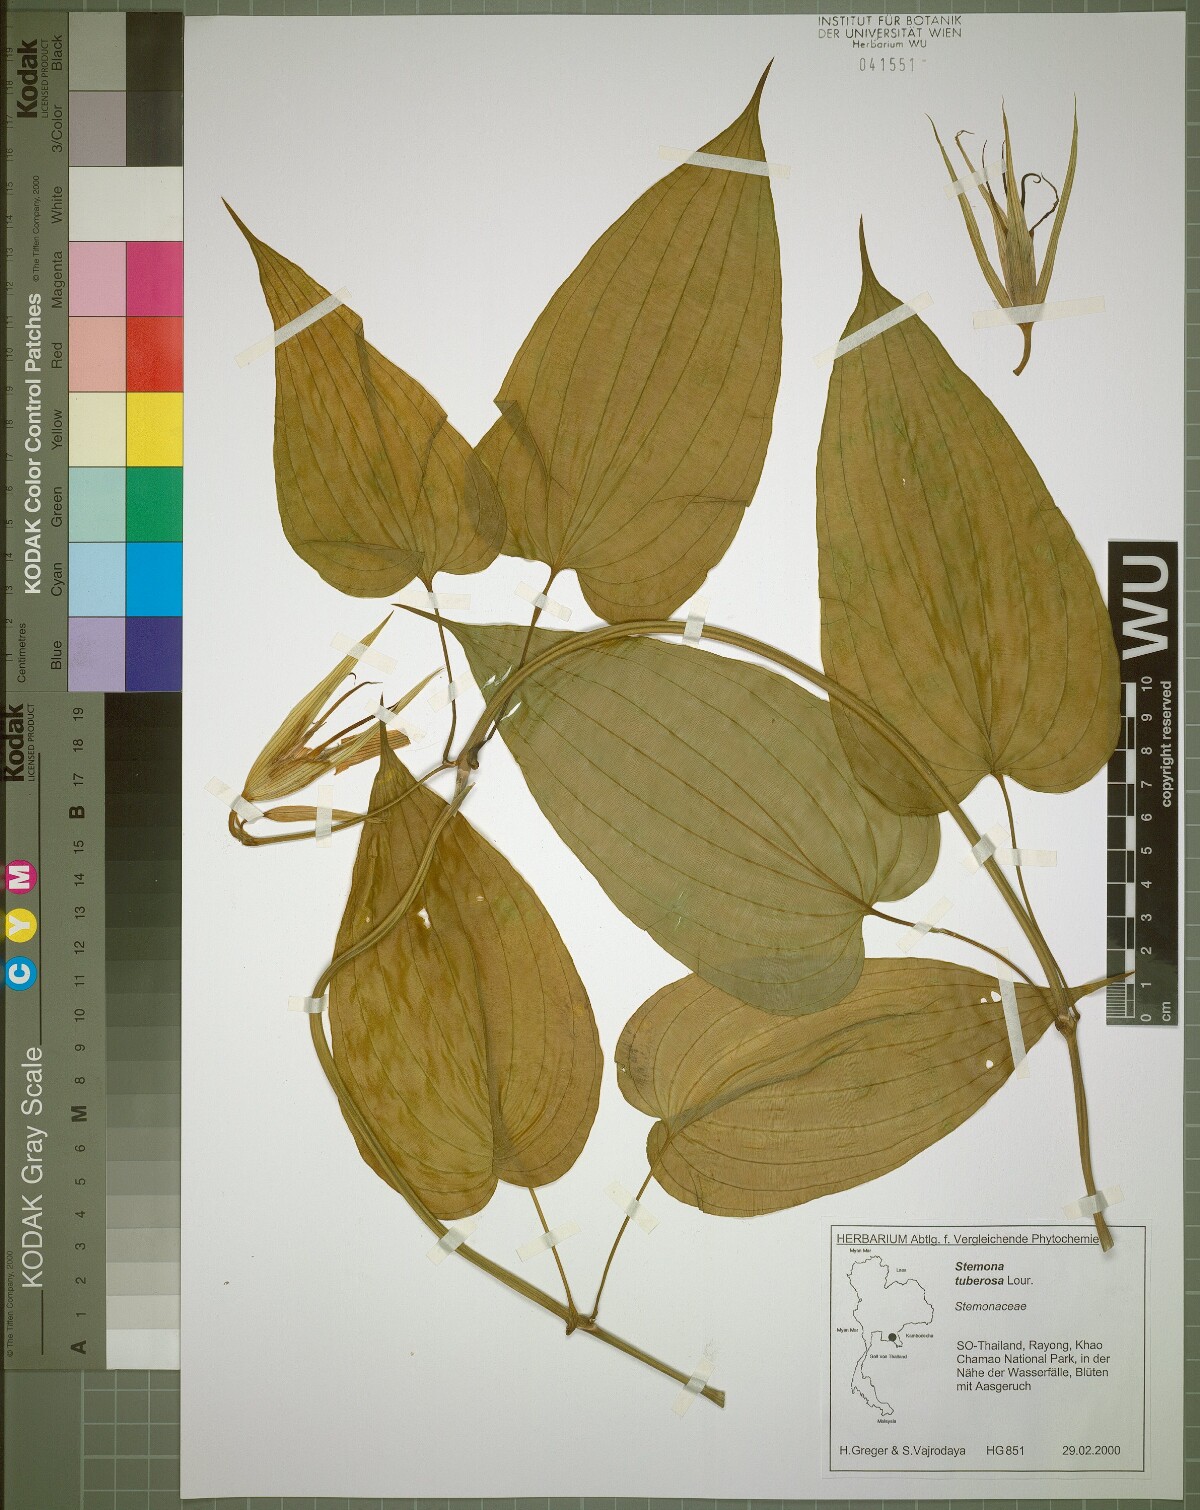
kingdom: Plantae
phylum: Tracheophyta
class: Liliopsida
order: Pandanales
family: Stemonaceae
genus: Stemona
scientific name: Stemona phyllantha
